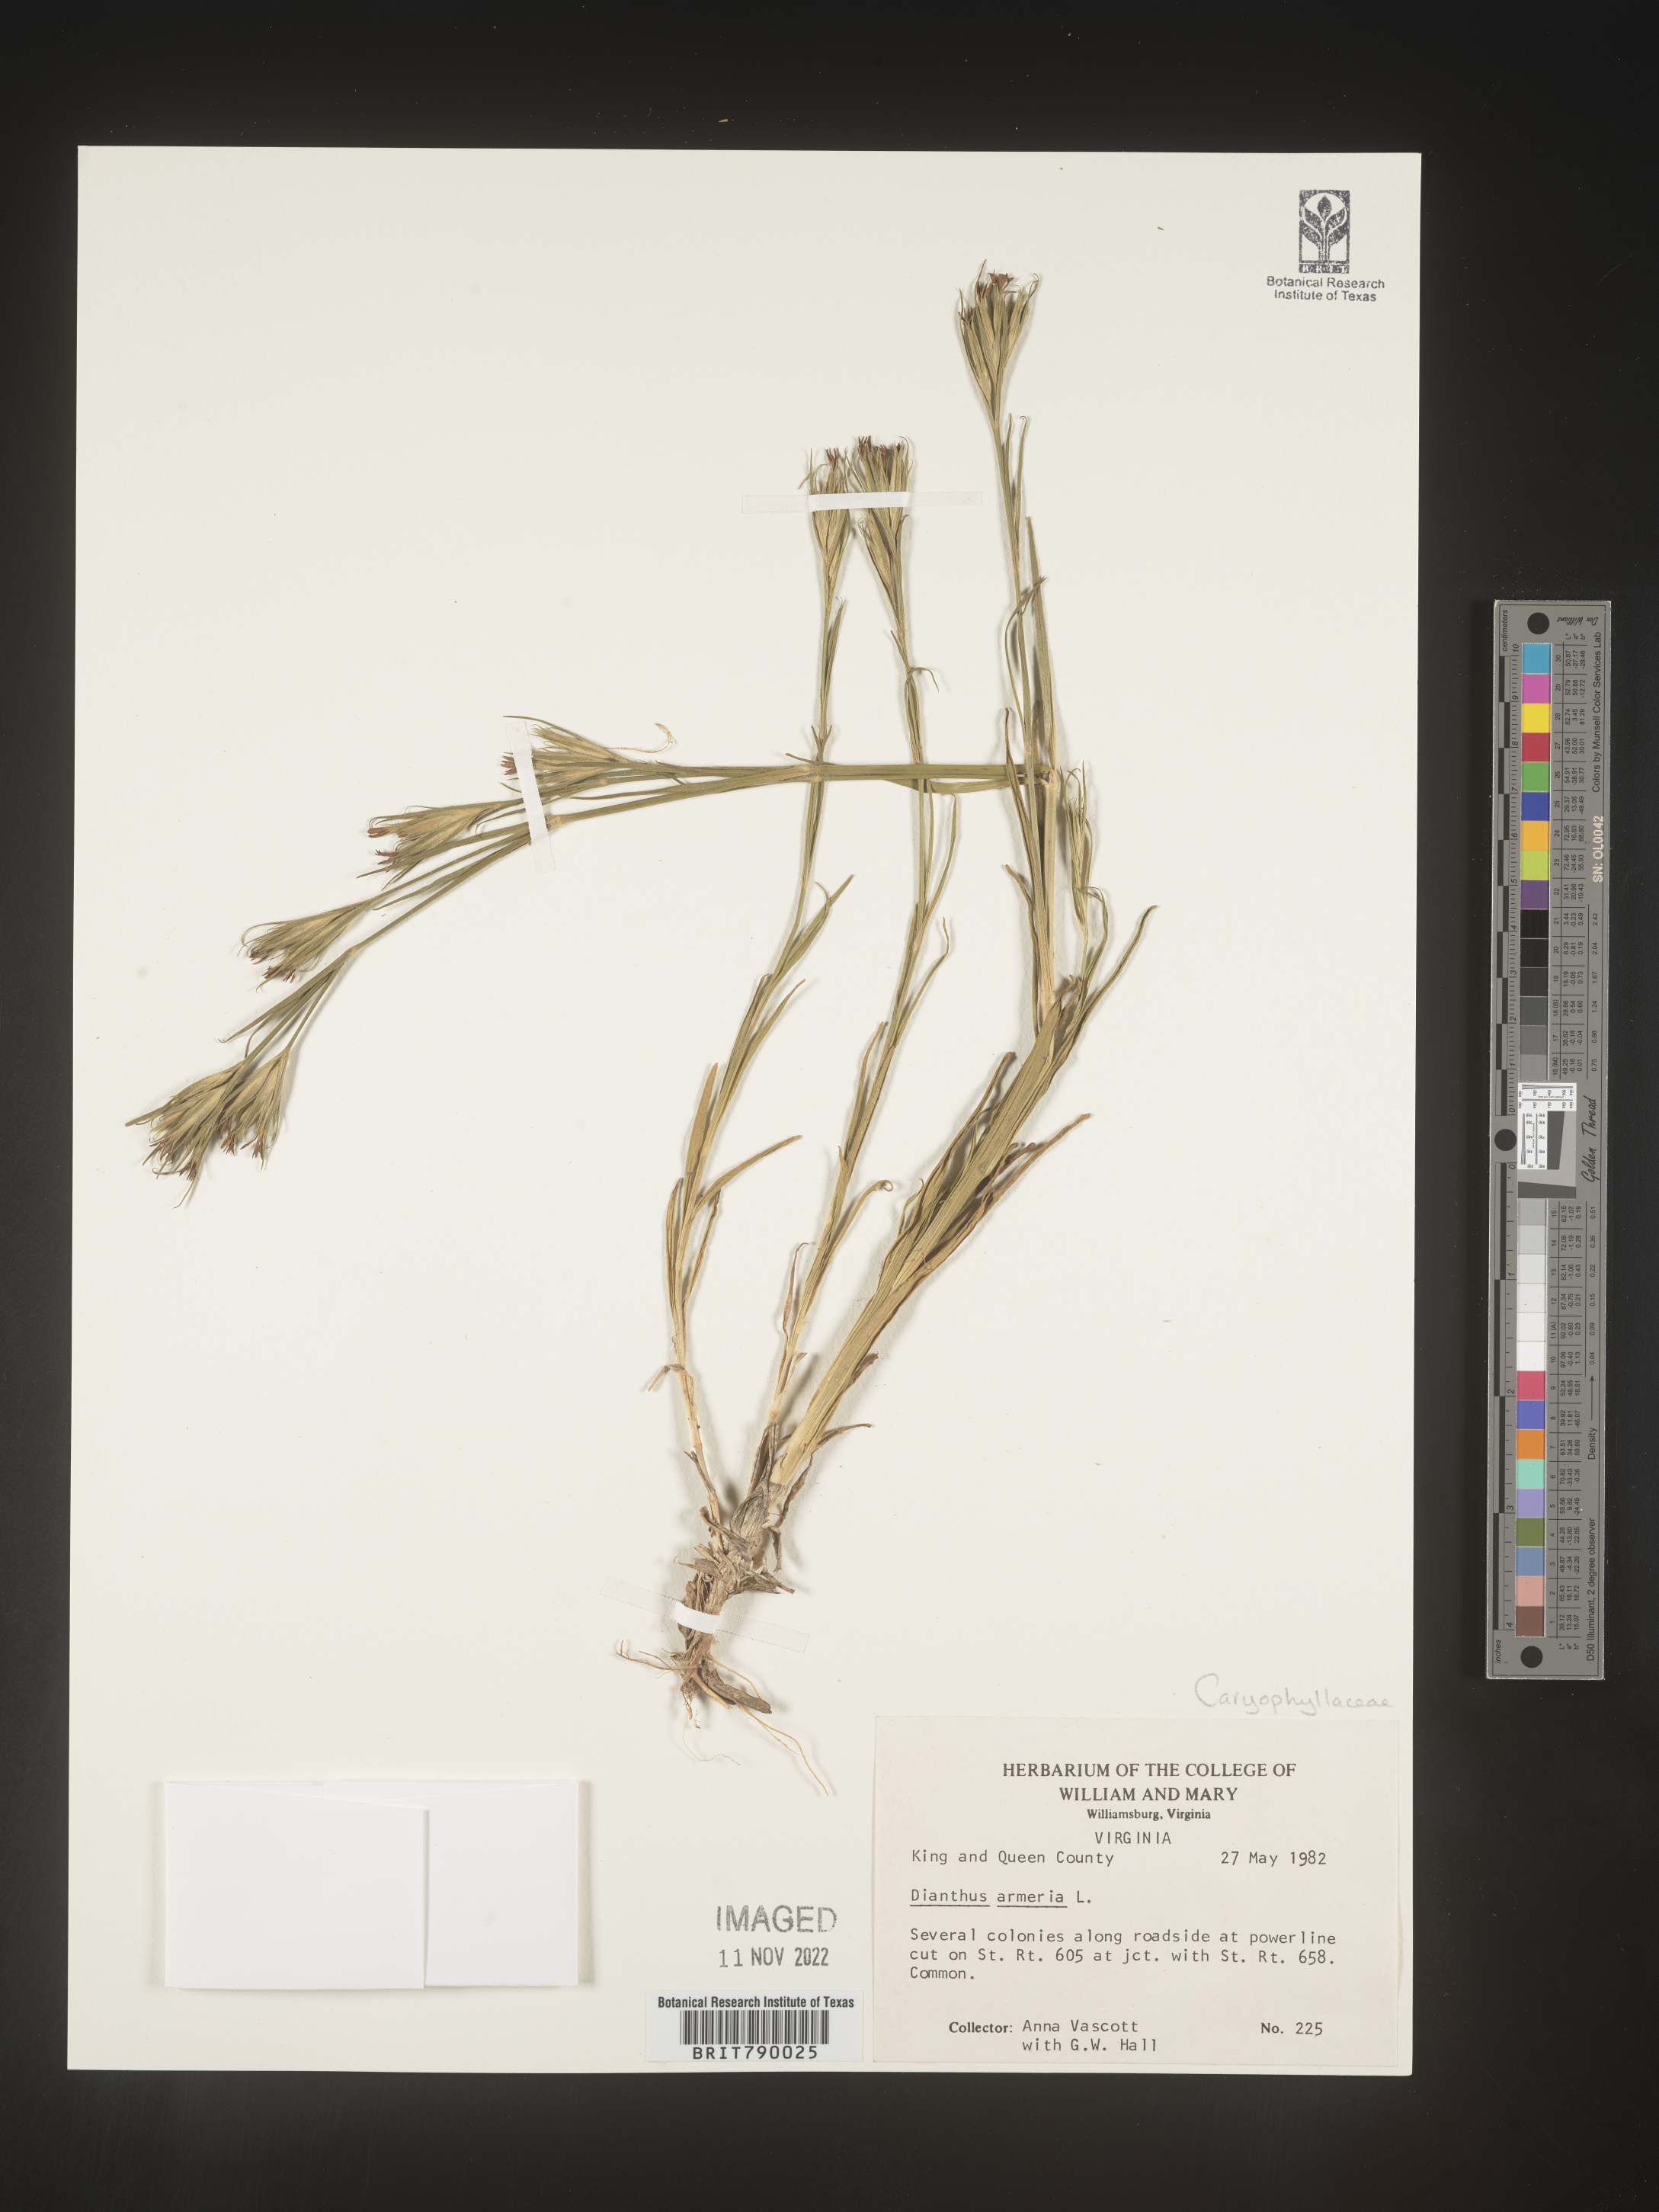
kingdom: Plantae
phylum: Tracheophyta
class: Magnoliopsida
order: Caryophyllales
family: Caryophyllaceae
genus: Dianthus
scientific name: Dianthus armeria
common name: Deptford pink
